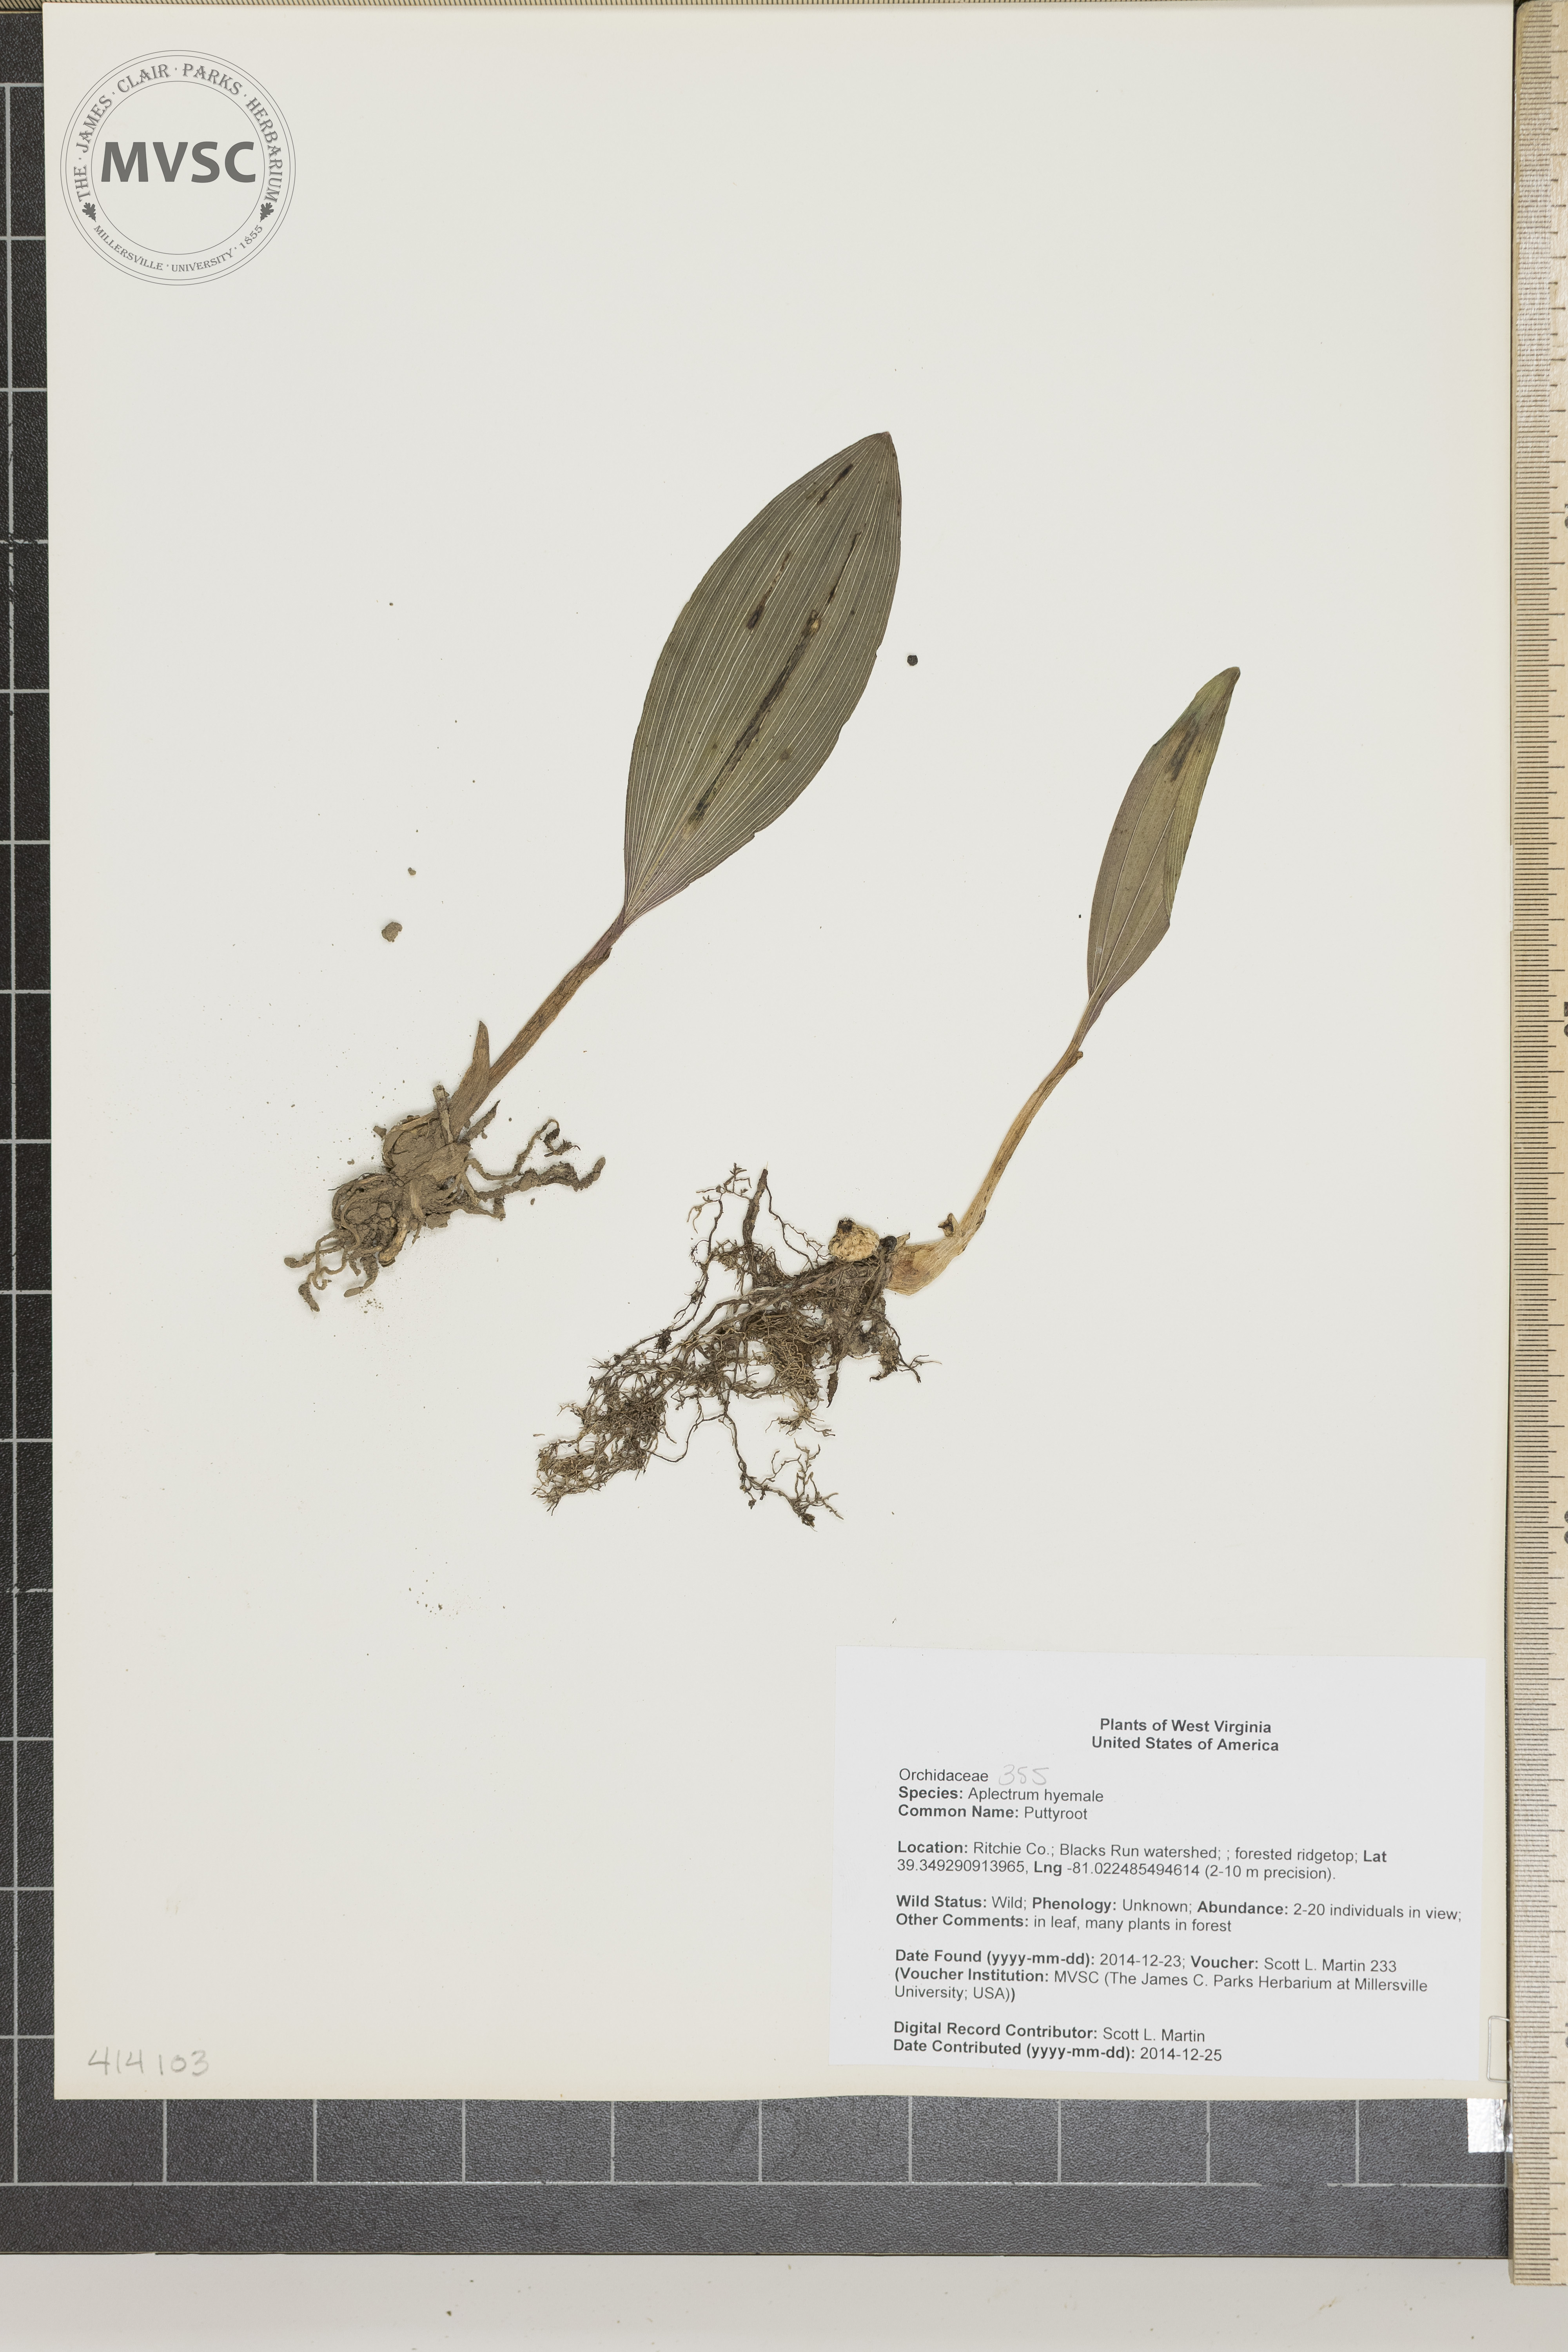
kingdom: Plantae
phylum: Tracheophyta
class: Liliopsida
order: Asparagales
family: Orchidaceae
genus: Aplectrum
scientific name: Aplectrum hyemale
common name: Puttyroot
